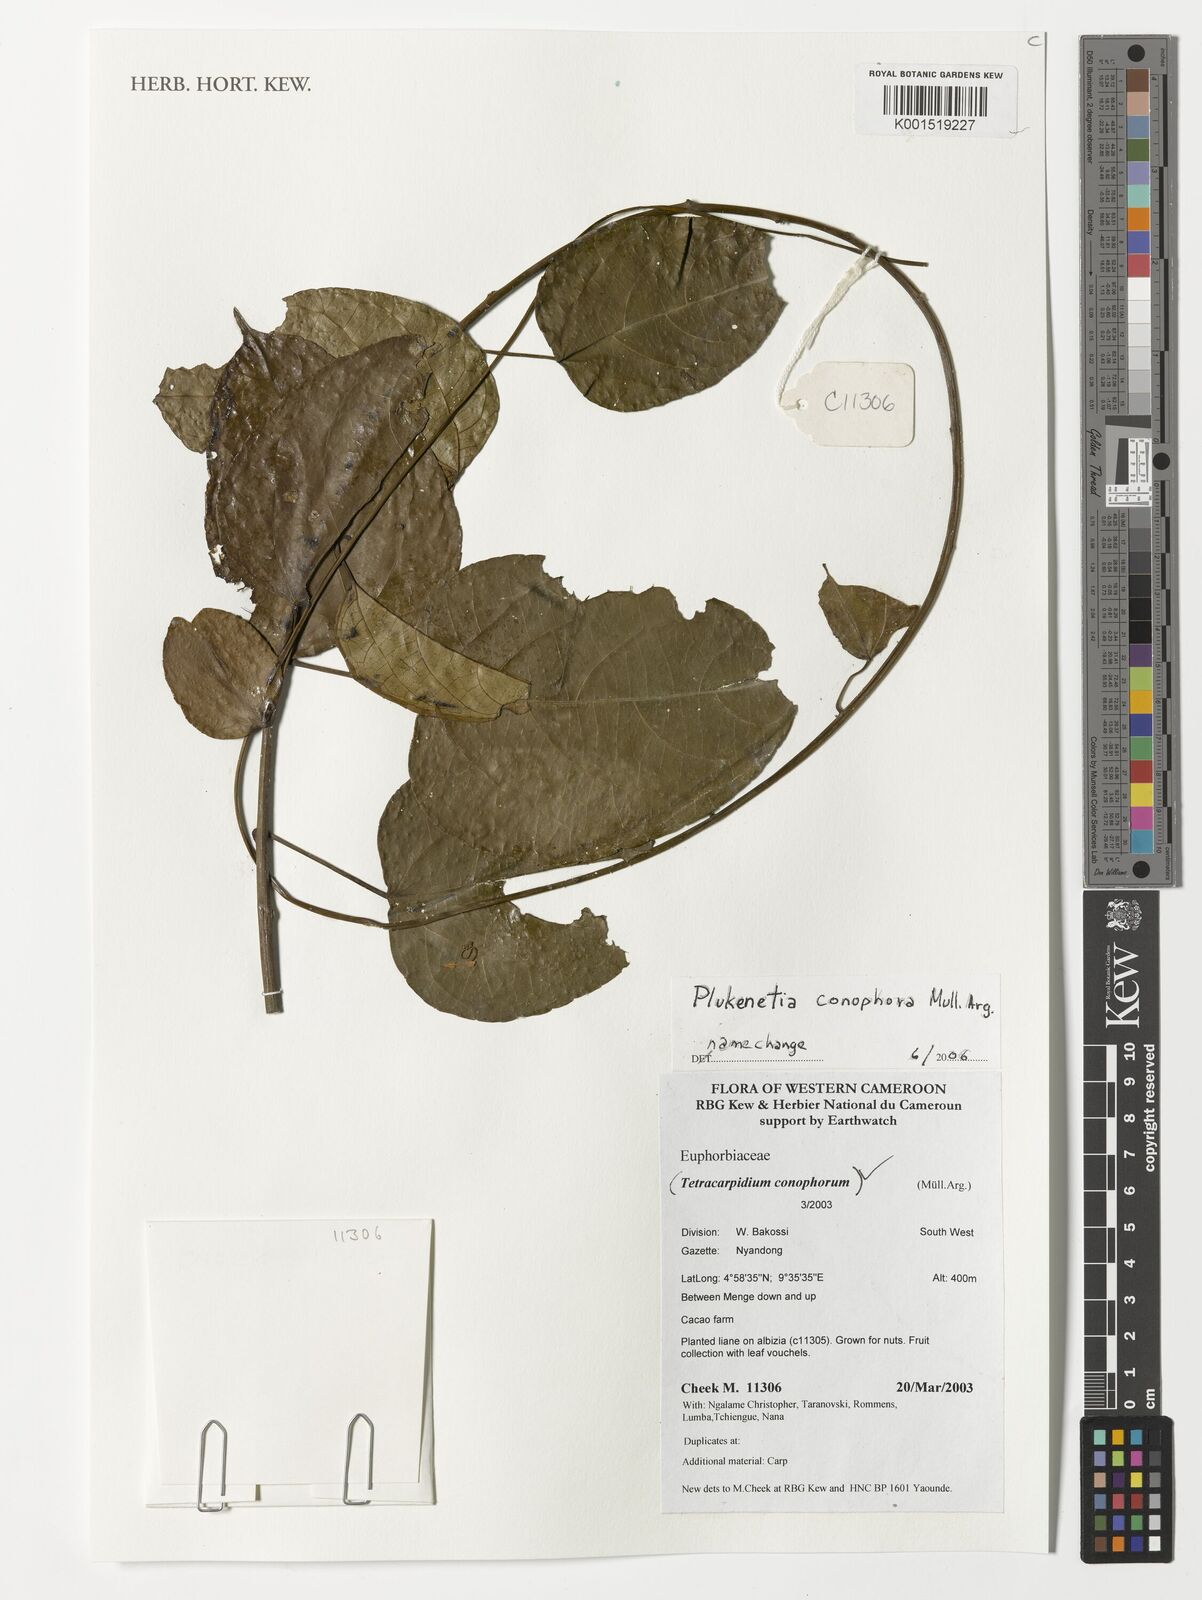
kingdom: Plantae
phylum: Tracheophyta
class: Magnoliopsida
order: Malpighiales
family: Euphorbiaceae
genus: Plukenetia
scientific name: Plukenetia conophora
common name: Owusa-nut
